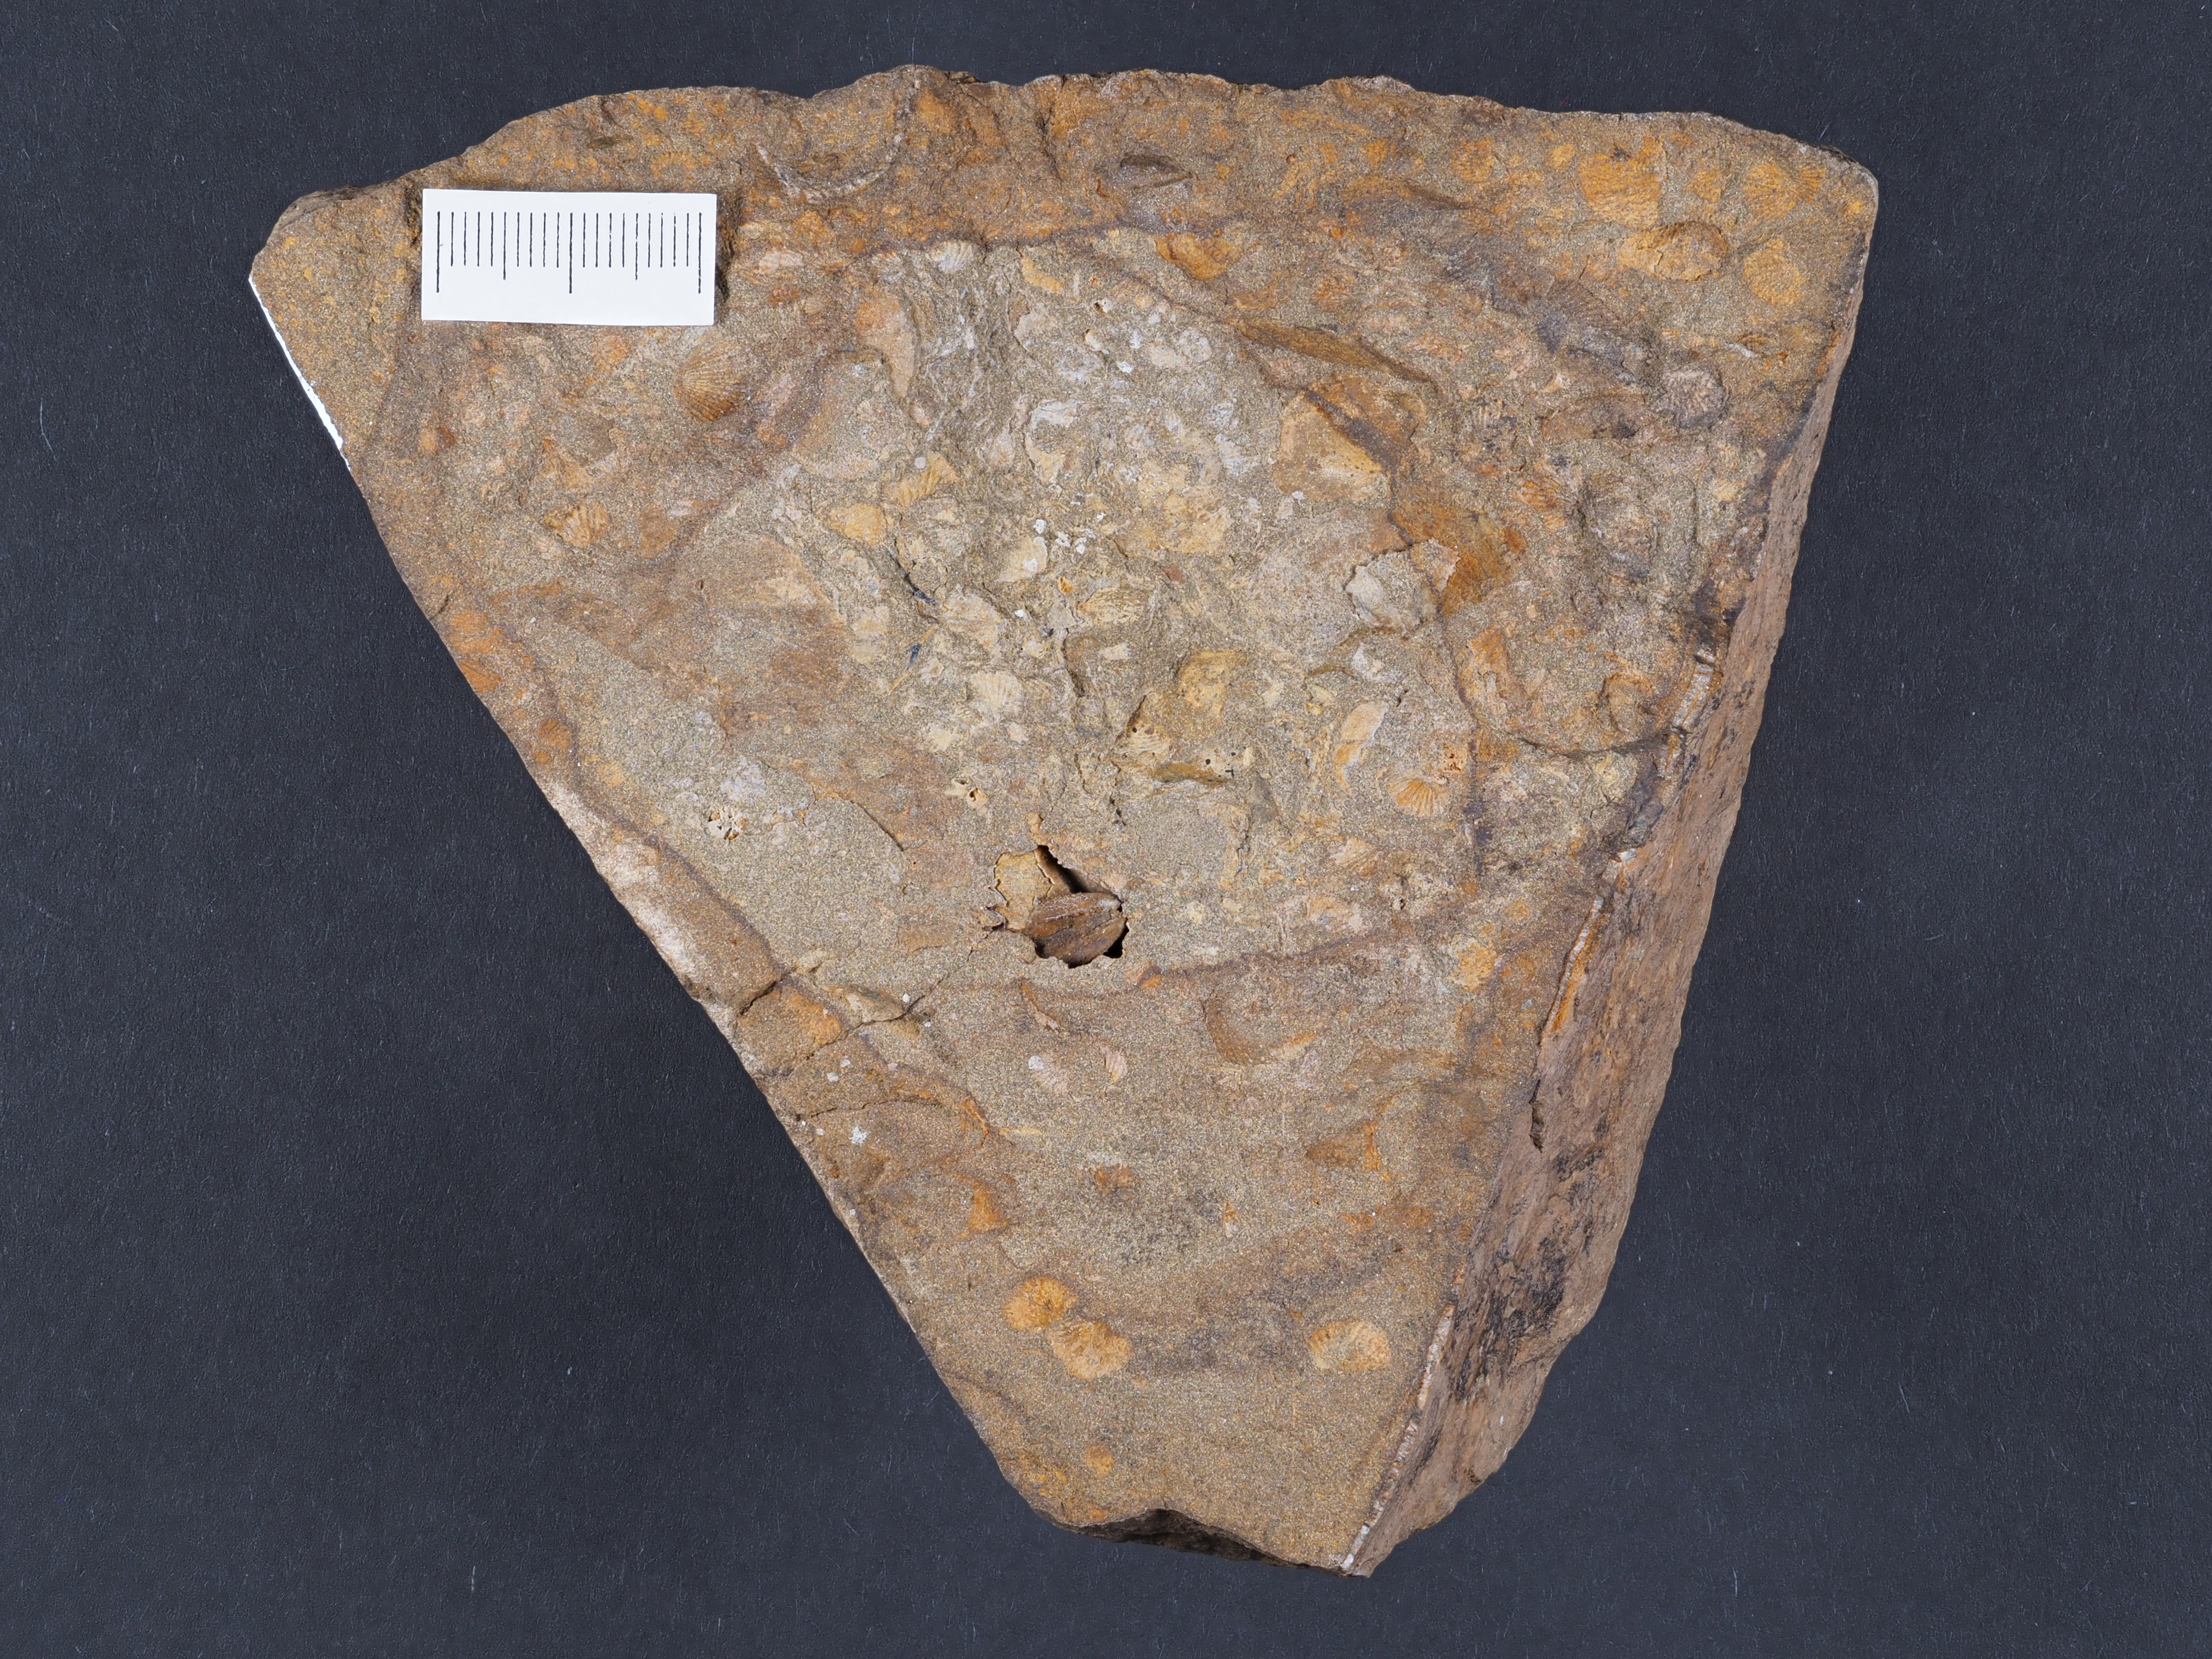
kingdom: Animalia
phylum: Brachiopoda
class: Rhynchonellata
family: Hysterolitidae
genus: Arduspirifer
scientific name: Arduspirifer
